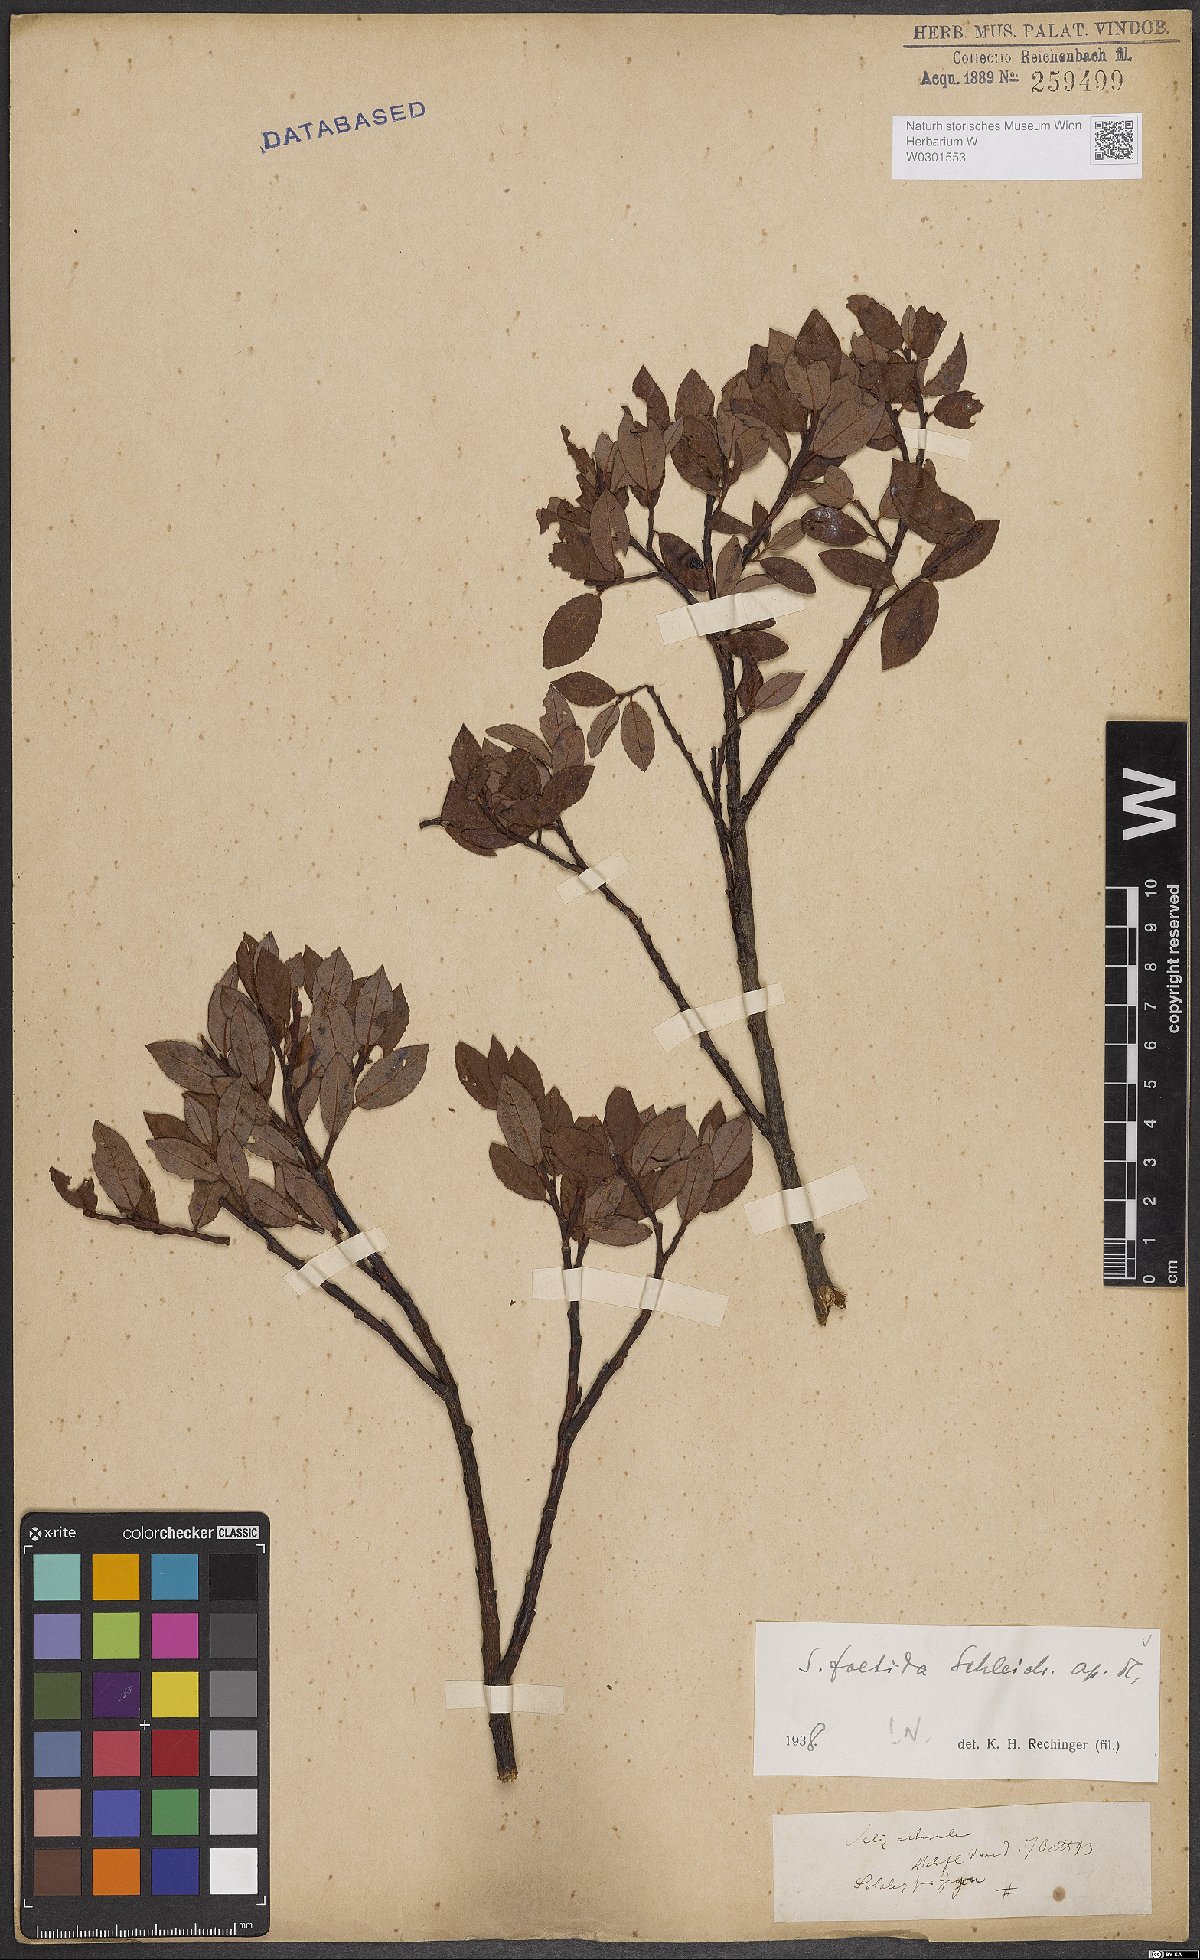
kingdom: Plantae
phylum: Tracheophyta
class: Magnoliopsida
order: Malpighiales
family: Salicaceae
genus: Salix
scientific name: Salix foetida
